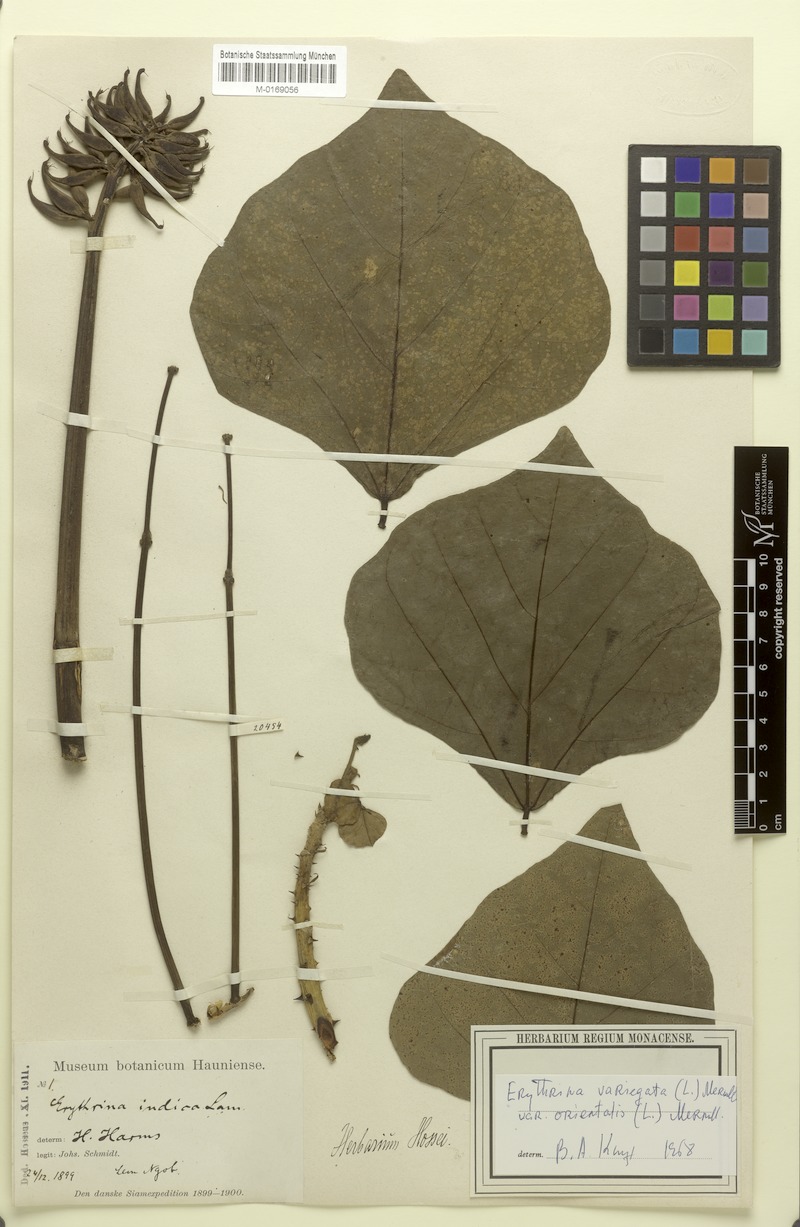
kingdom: Plantae
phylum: Tracheophyta
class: Magnoliopsida
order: Fabales
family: Fabaceae
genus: Erythrina
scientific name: Erythrina variegata
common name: Indian coral tree
